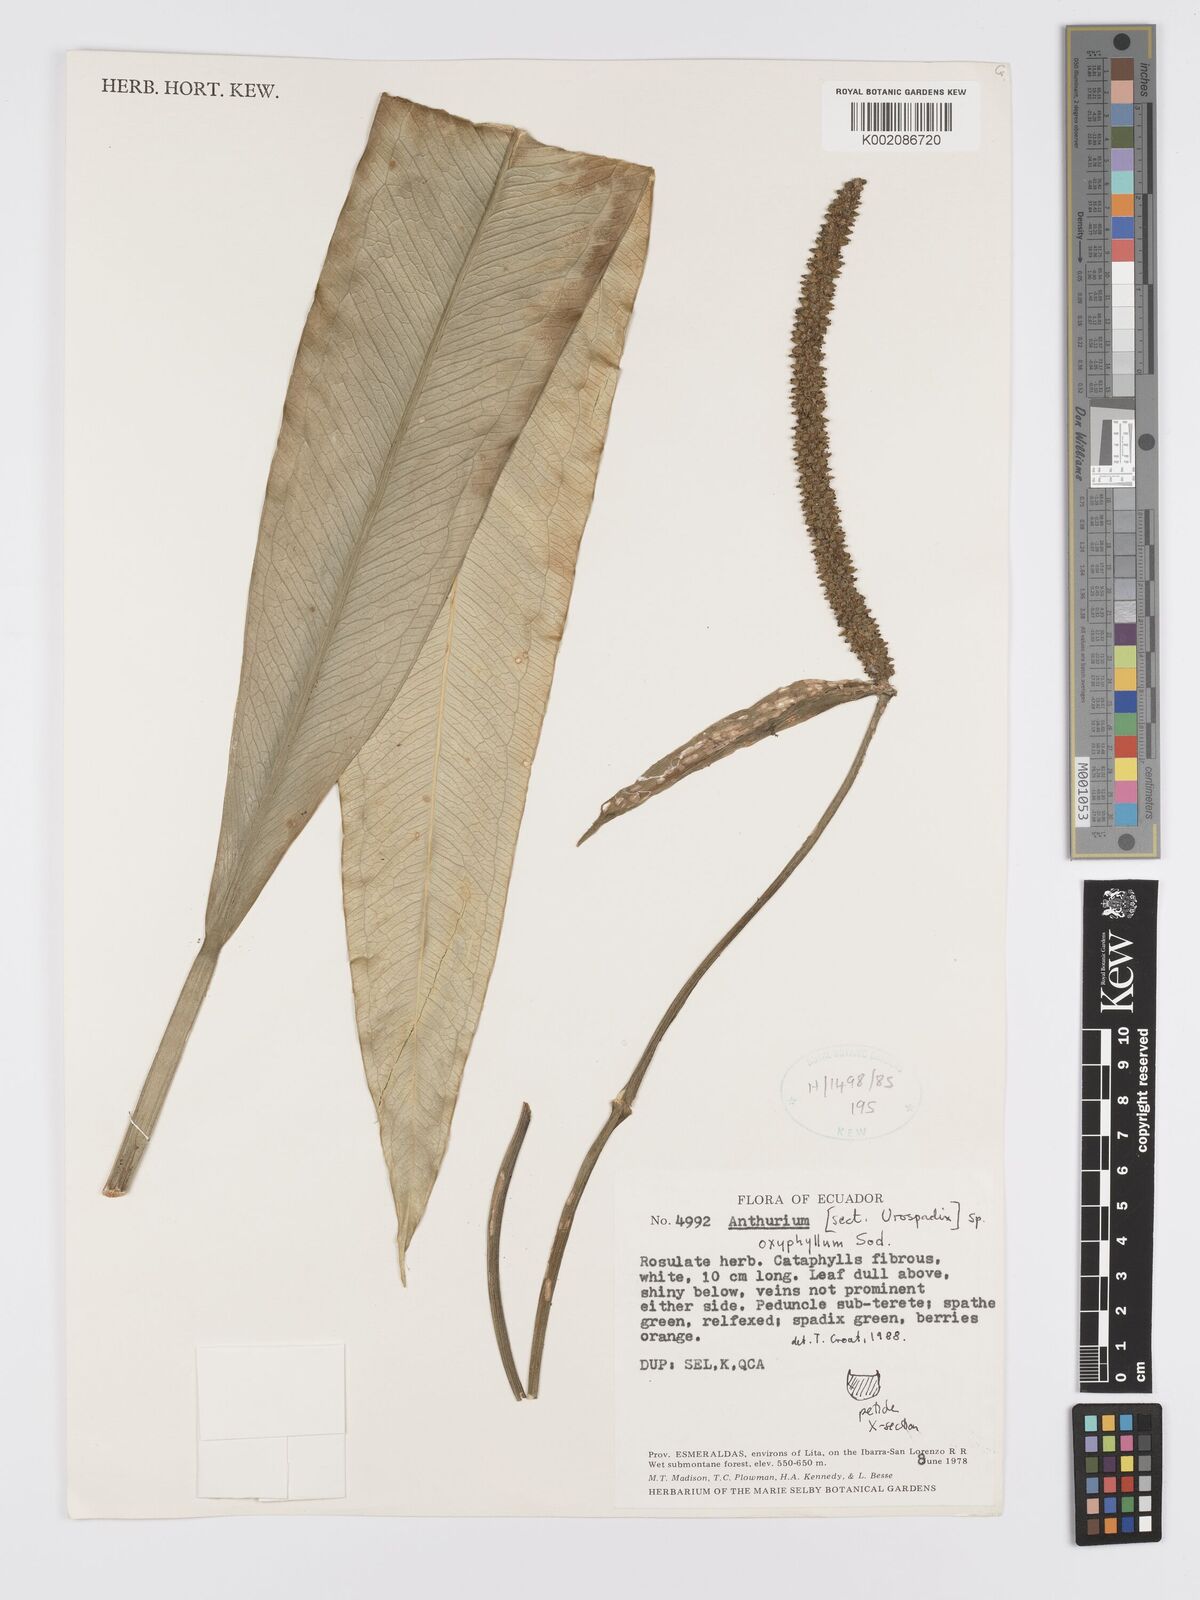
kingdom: Plantae
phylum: Tracheophyta
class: Liliopsida
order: Alismatales
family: Araceae
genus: Anthurium
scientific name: Anthurium oxyphyllum
